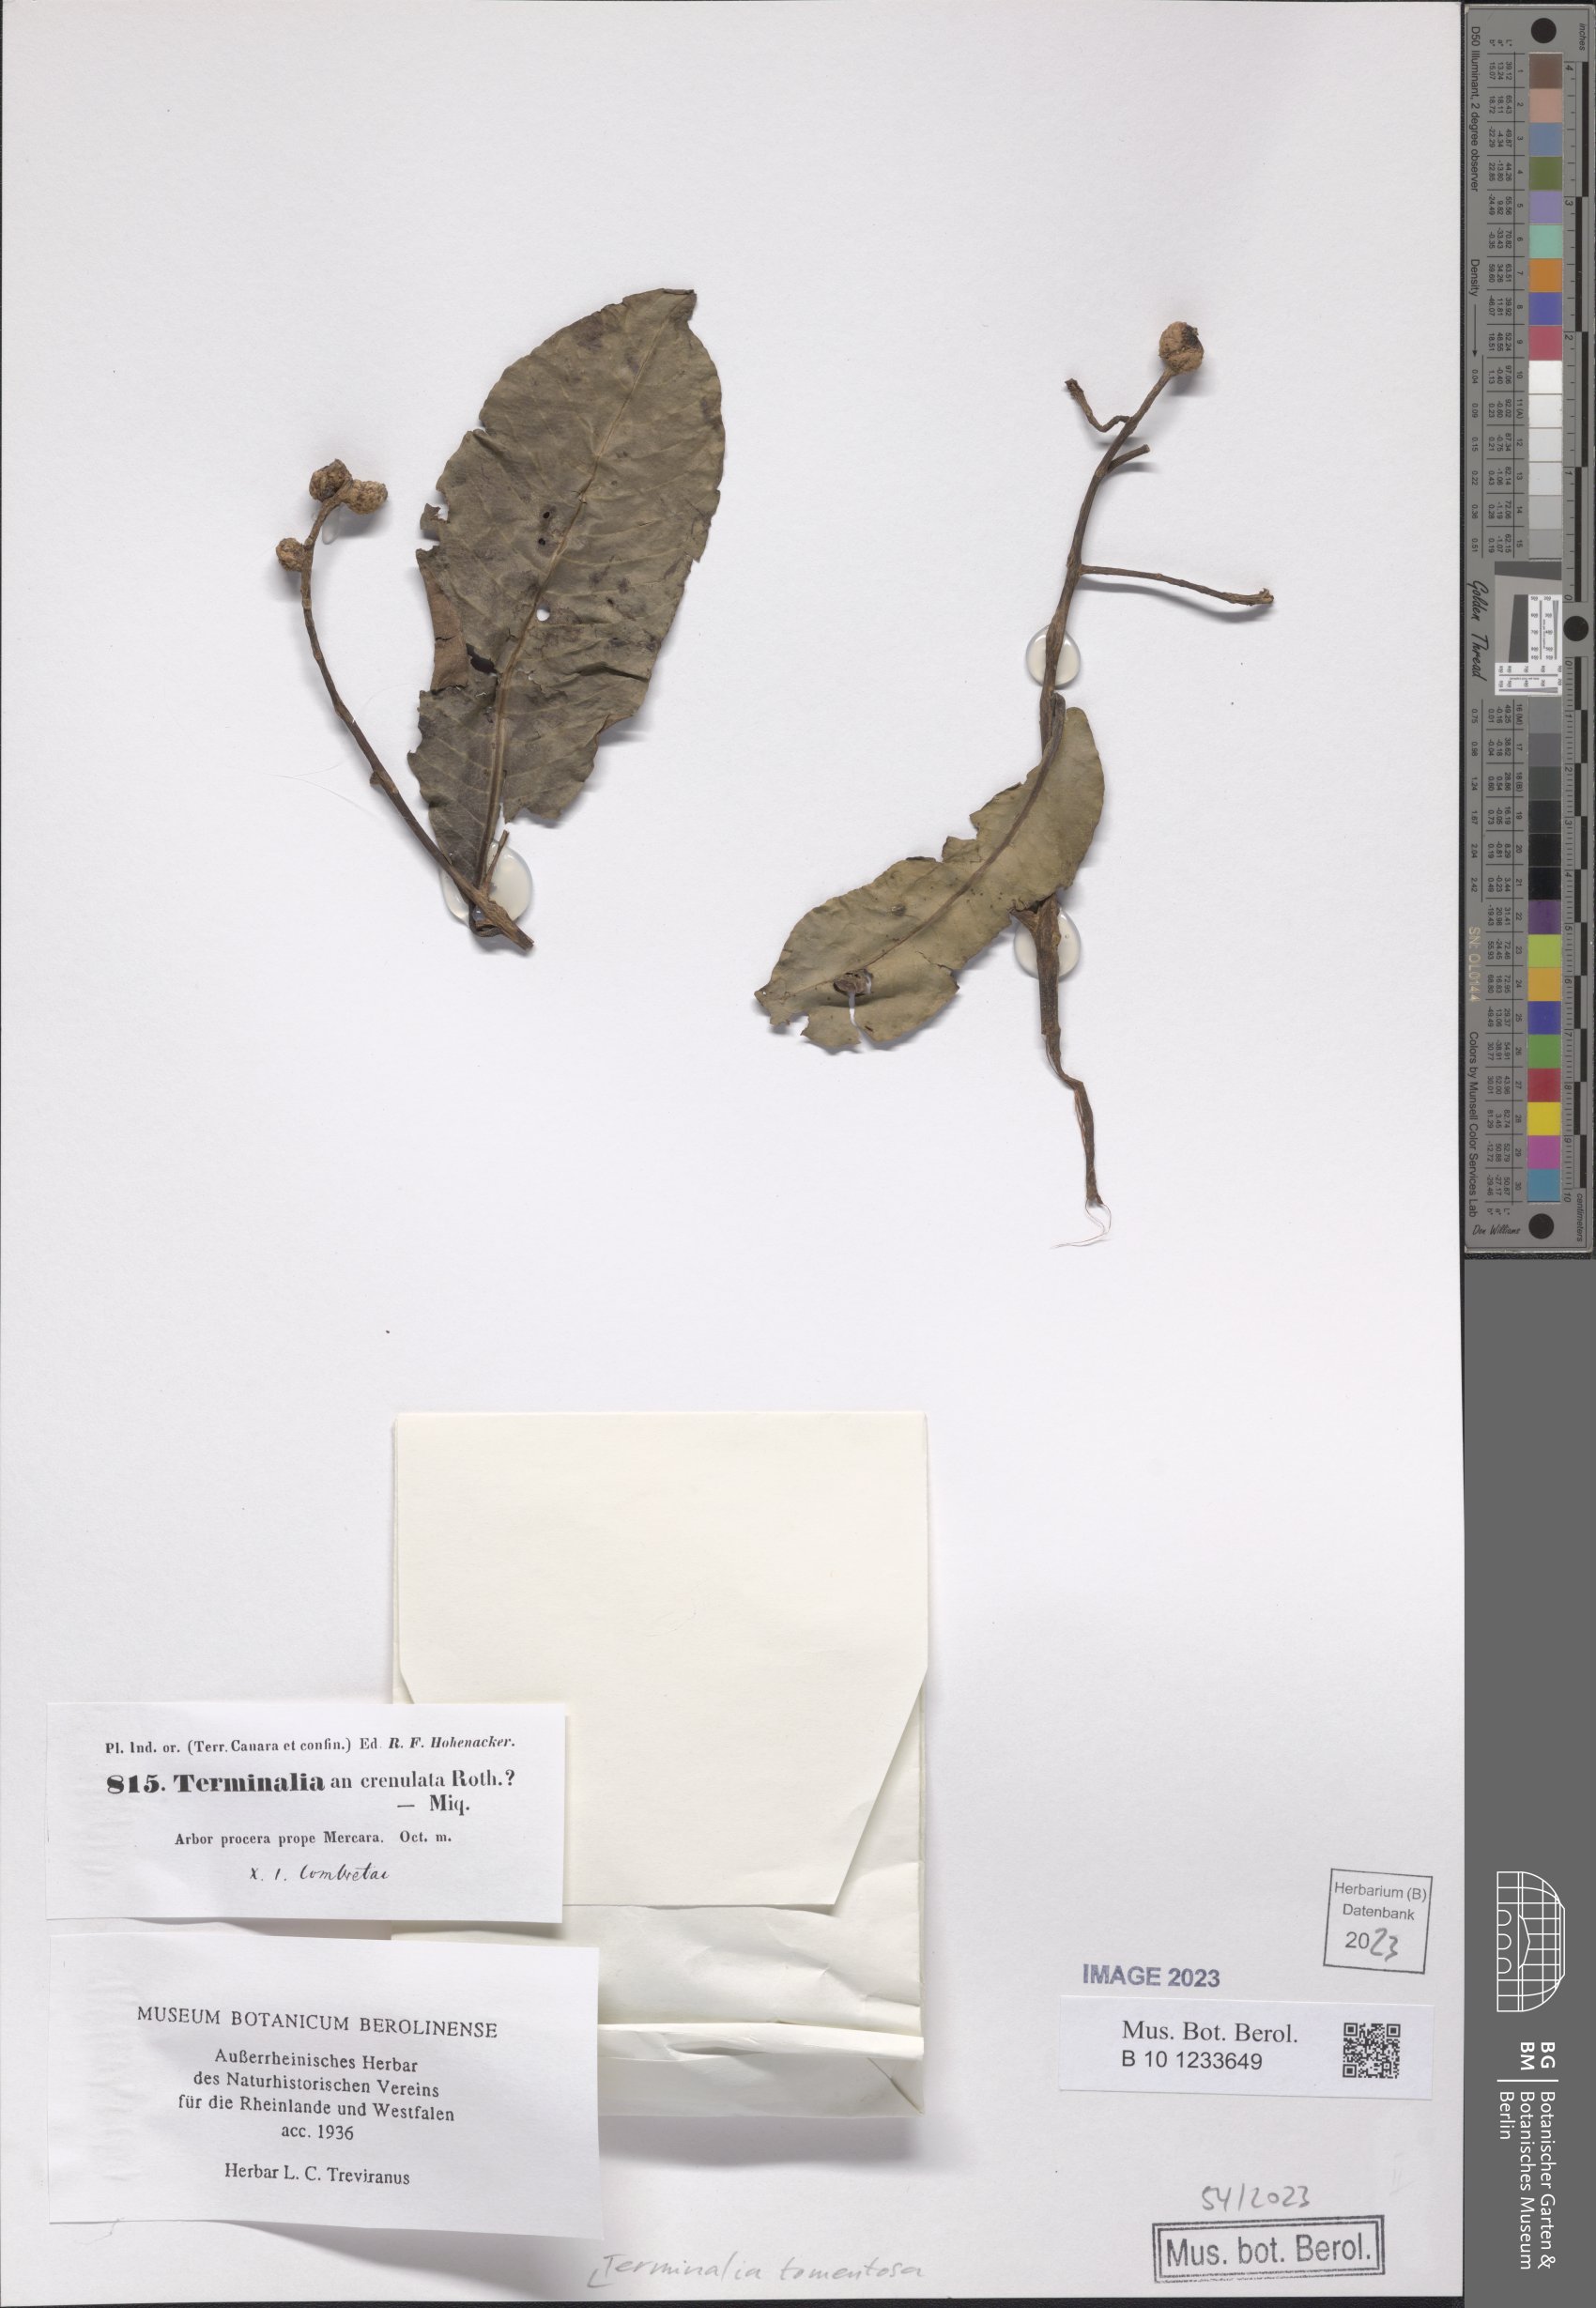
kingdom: Plantae
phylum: Tracheophyta
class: Magnoliopsida
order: Myrtales
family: Combretaceae
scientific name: Combretaceae
